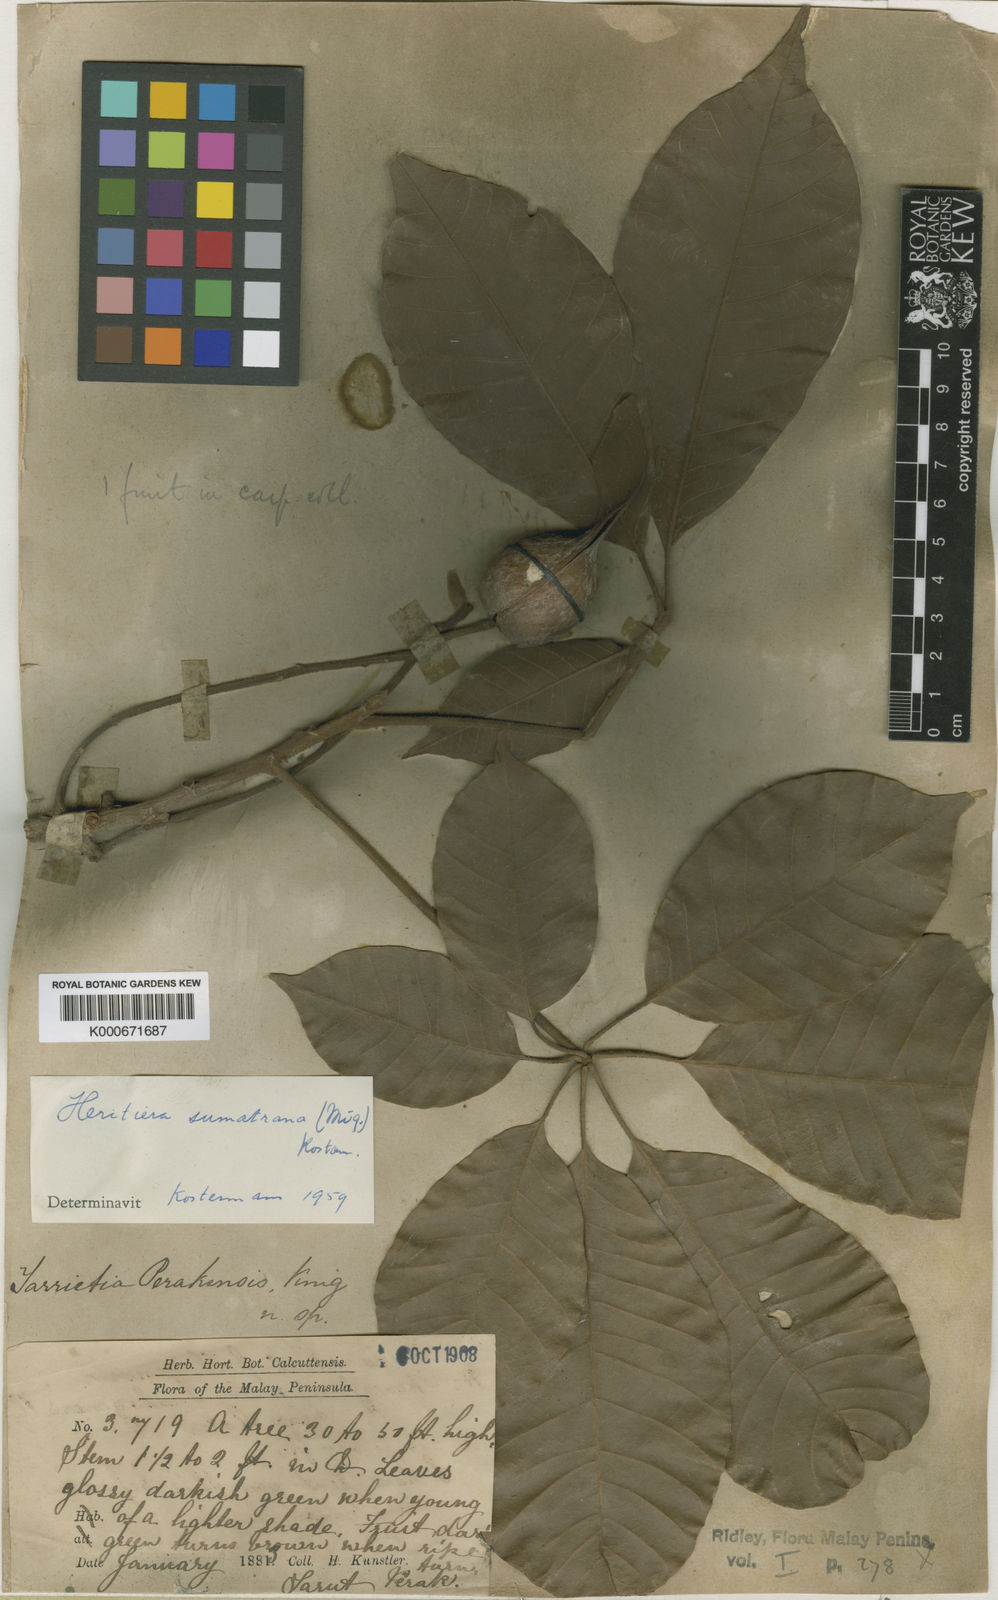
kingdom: Plantae
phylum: Tracheophyta
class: Magnoliopsida
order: Malvales
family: Malvaceae
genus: Heritiera
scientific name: Heritiera sumatrana
